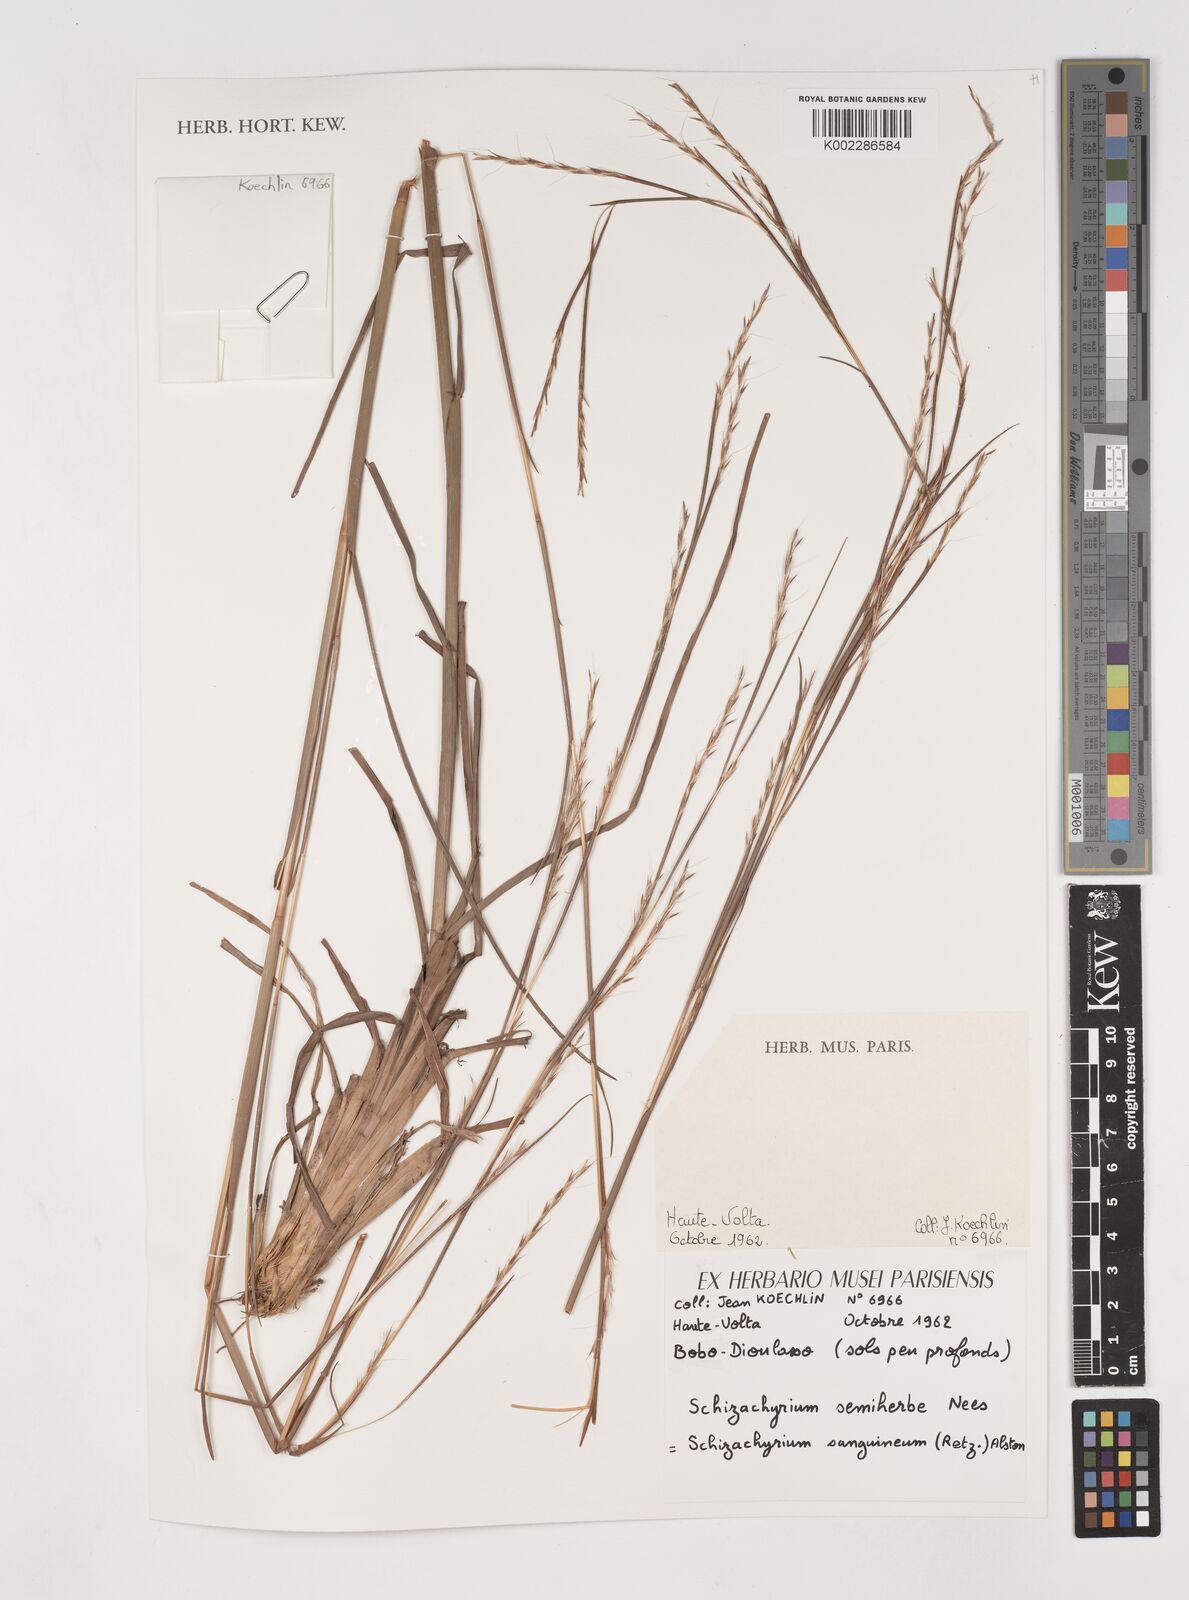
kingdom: Plantae
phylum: Tracheophyta
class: Liliopsida
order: Poales
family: Poaceae
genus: Schizachyrium
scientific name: Schizachyrium sanguineum
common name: Crimson bluestem
